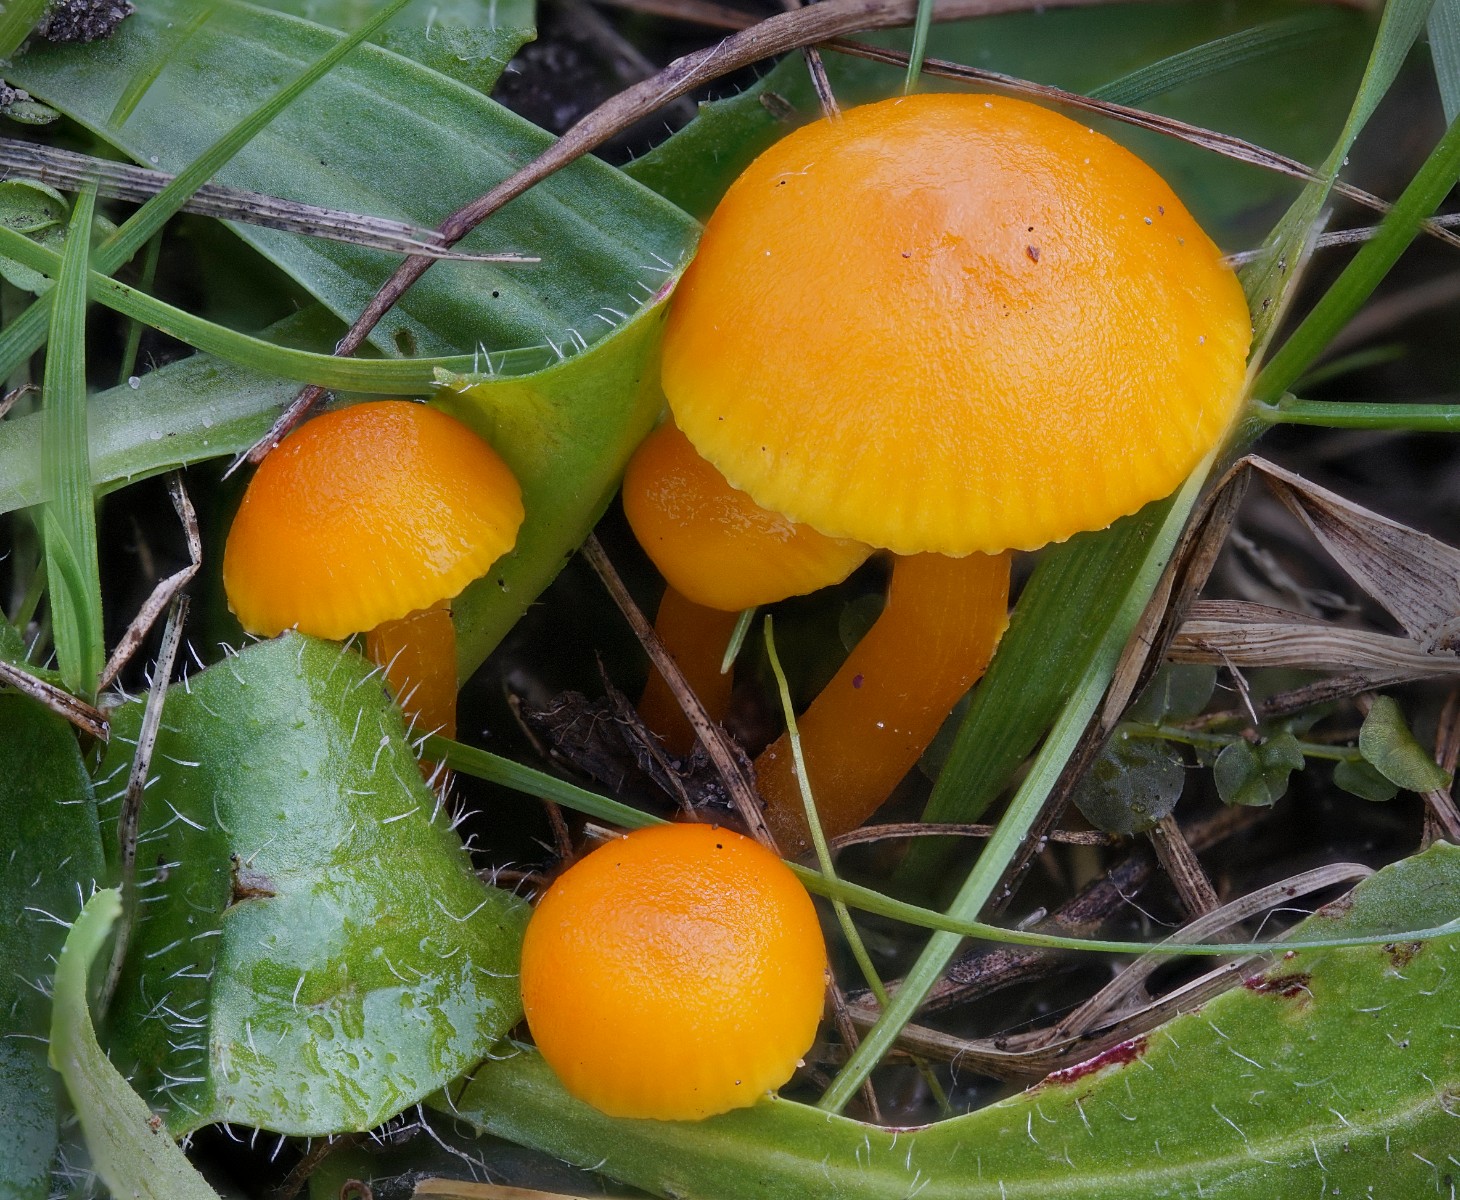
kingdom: Fungi
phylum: Basidiomycota
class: Agaricomycetes
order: Agaricales
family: Hygrophoraceae
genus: Hygrocybe
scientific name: Hygrocybe ceracea
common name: voksgul vokshat
